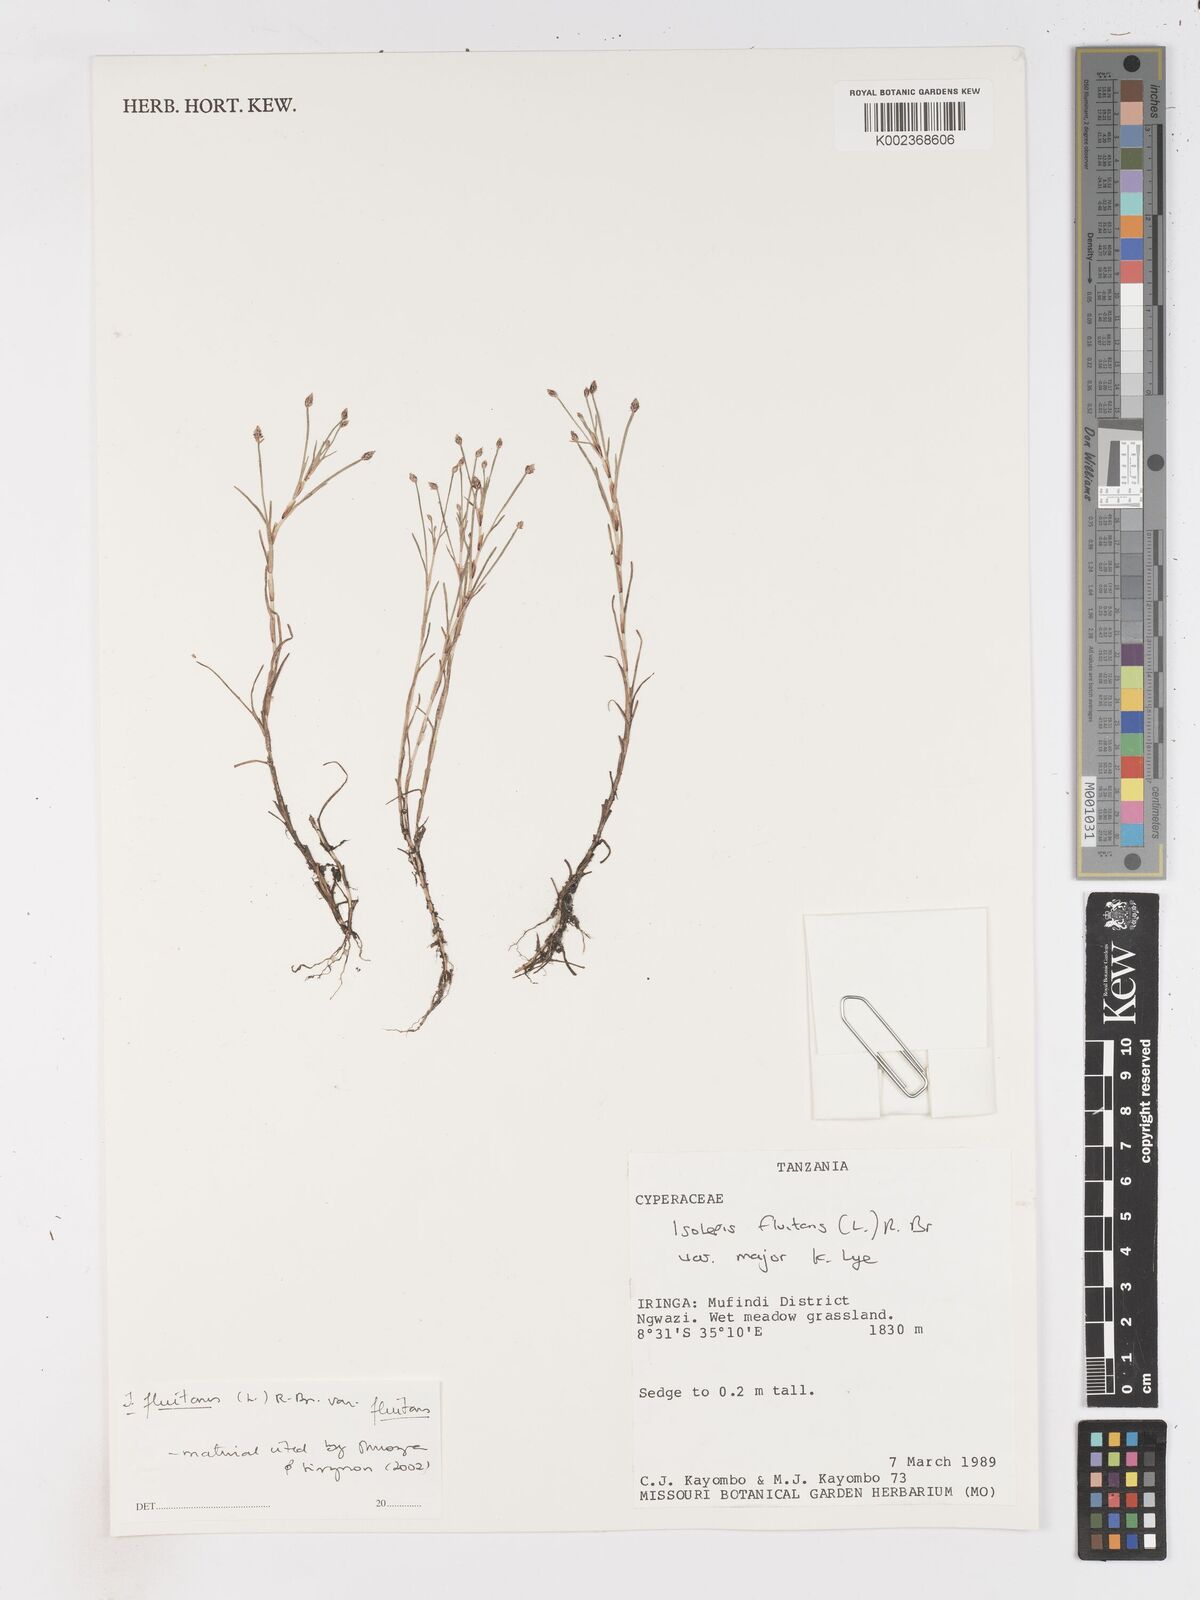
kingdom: Plantae
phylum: Tracheophyta
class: Liliopsida
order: Poales
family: Cyperaceae
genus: Isolepis
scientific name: Isolepis fluitans
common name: Floating club-rush
